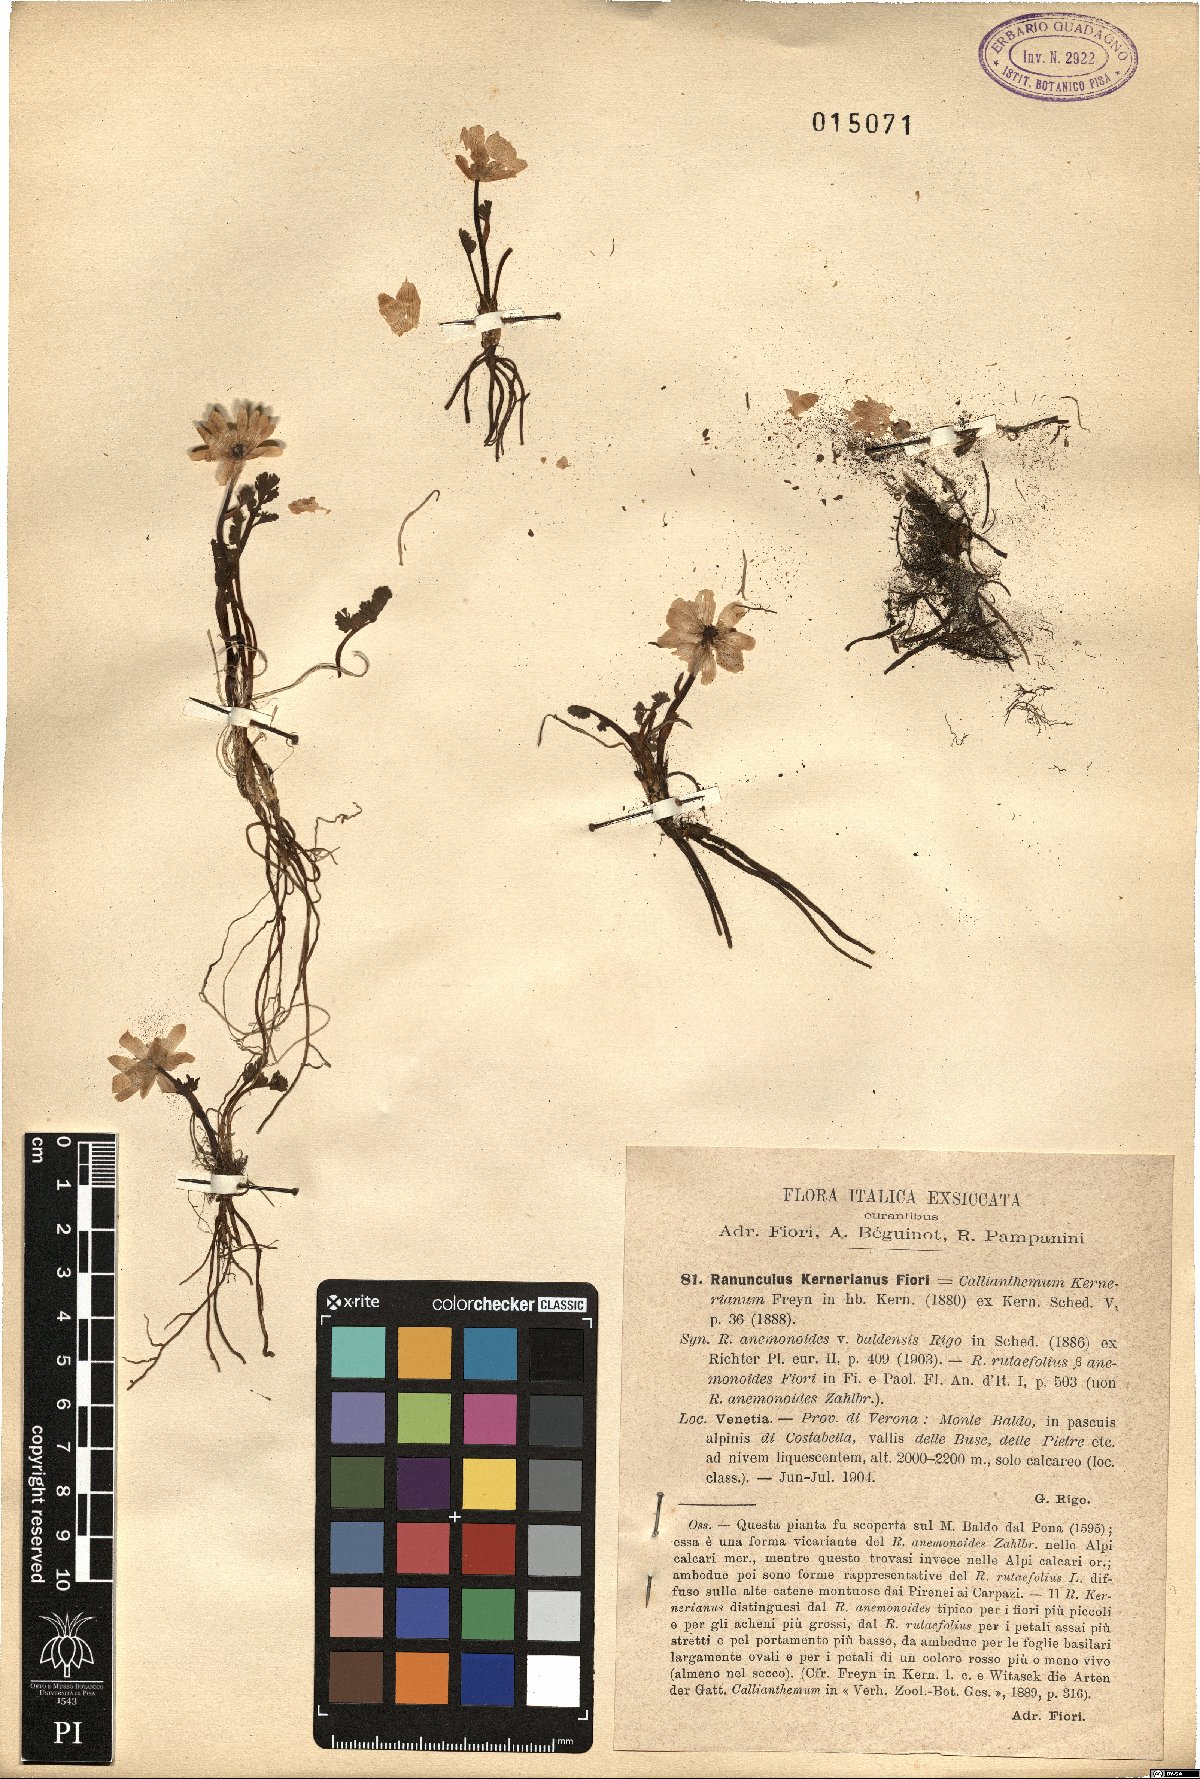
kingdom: Plantae
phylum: Tracheophyta
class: Magnoliopsida
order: Ranunculales
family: Ranunculaceae
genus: Callianthemum
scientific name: Callianthemum kernerianum
